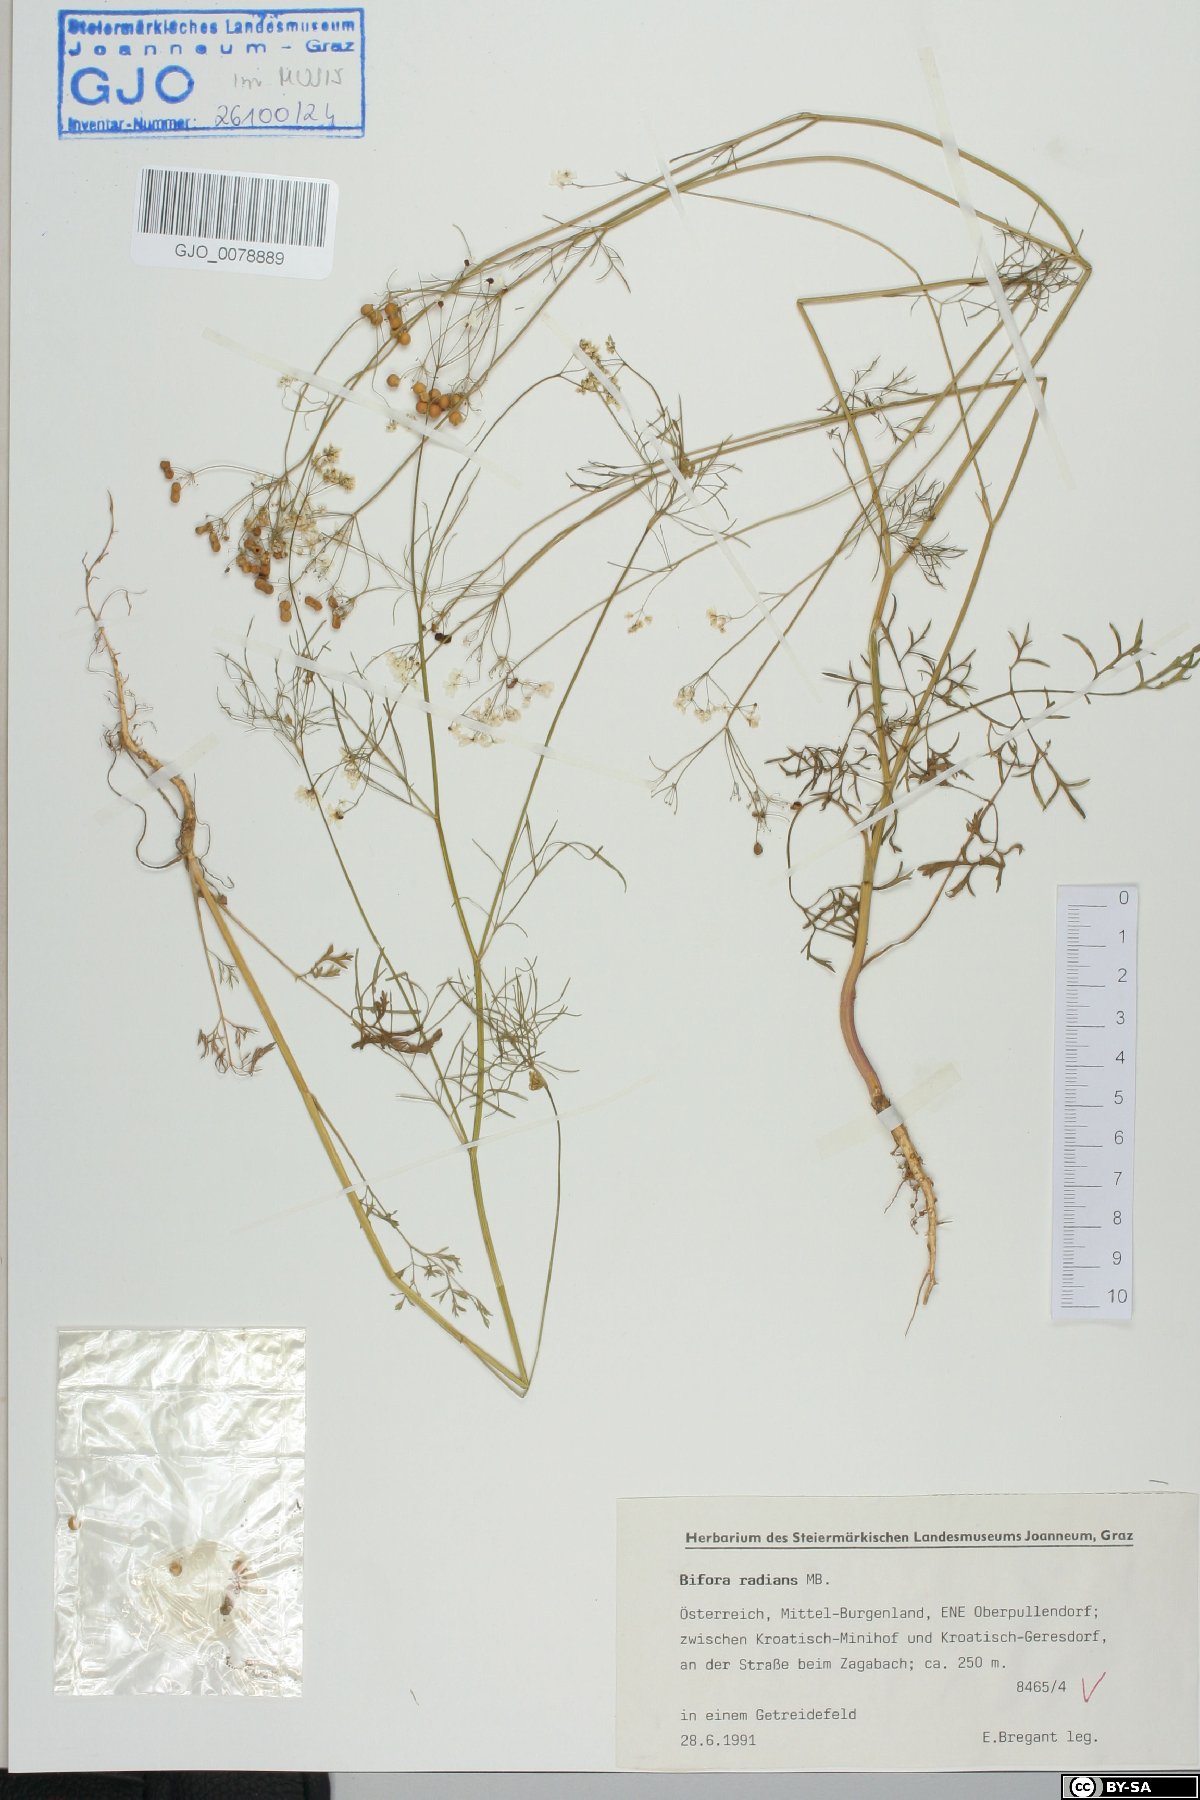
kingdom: Plantae
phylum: Tracheophyta
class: Magnoliopsida
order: Apiales
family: Apiaceae
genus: Bifora
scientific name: Bifora radians
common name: Wild bishop
